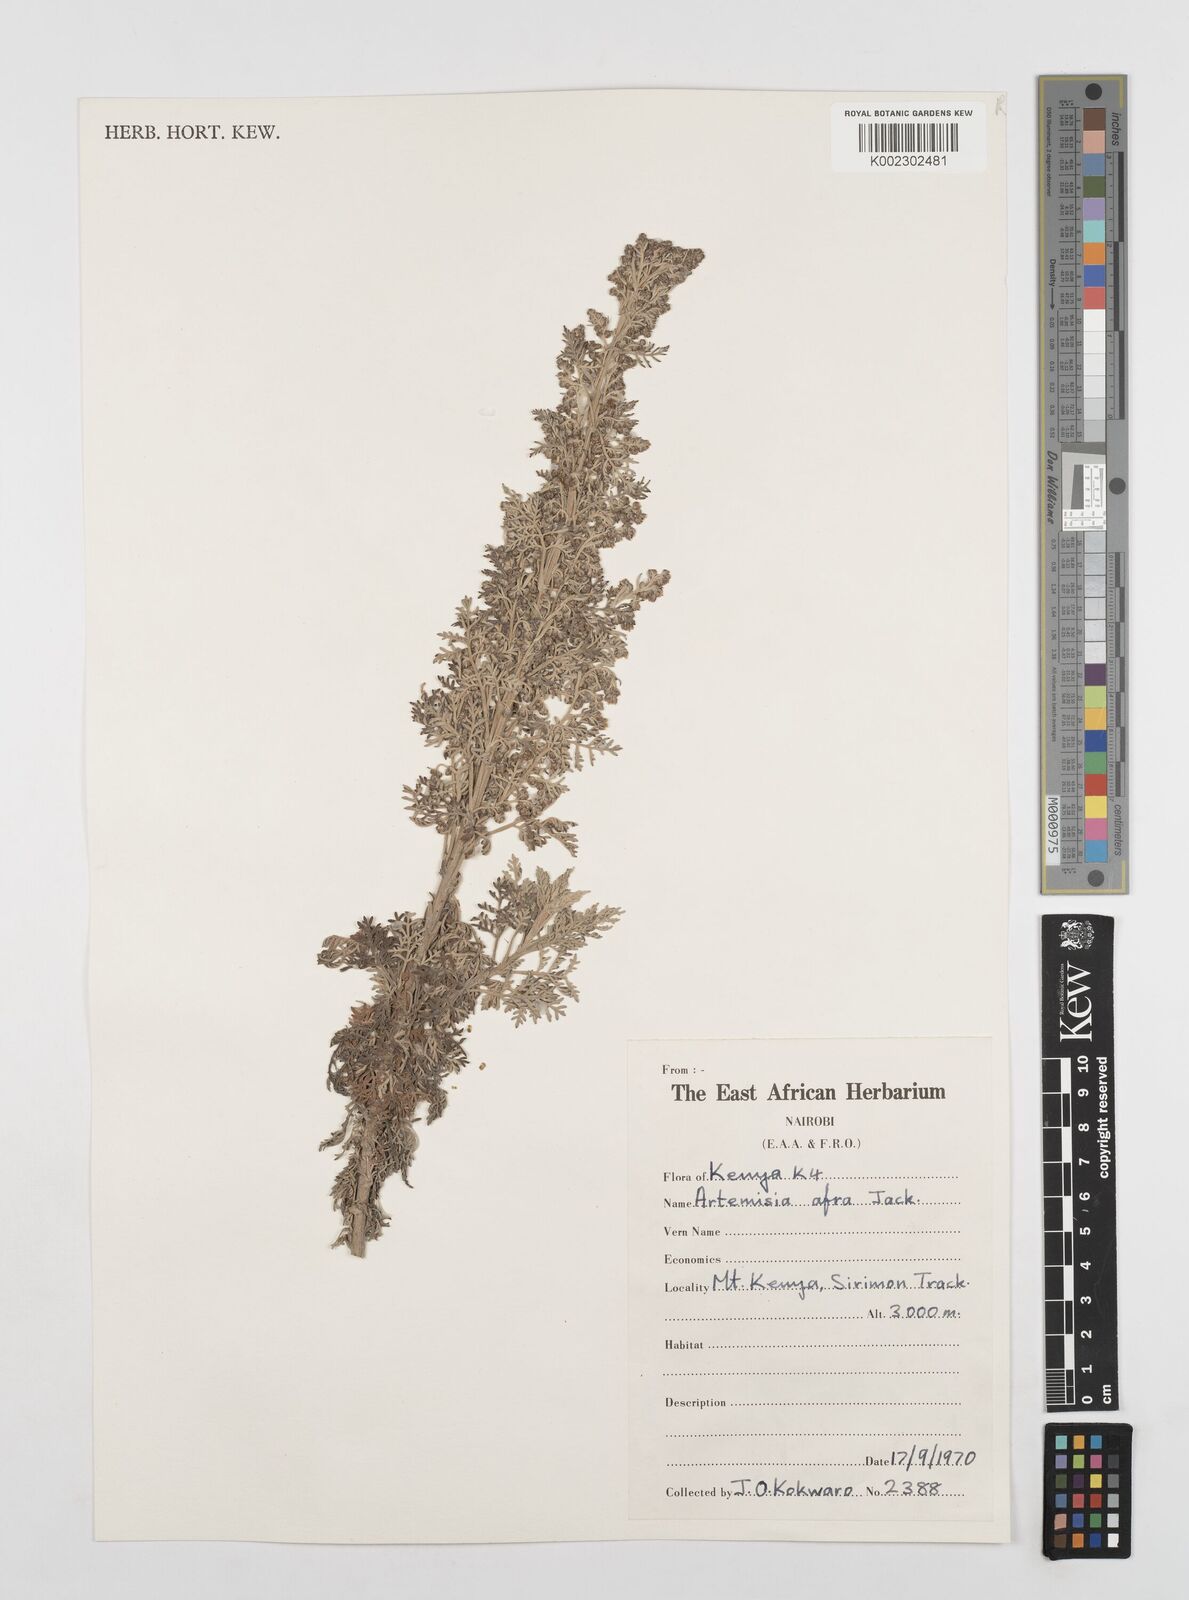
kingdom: Plantae
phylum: Tracheophyta
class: Magnoliopsida
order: Asterales
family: Asteraceae
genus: Artemisia
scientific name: Artemisia afra
